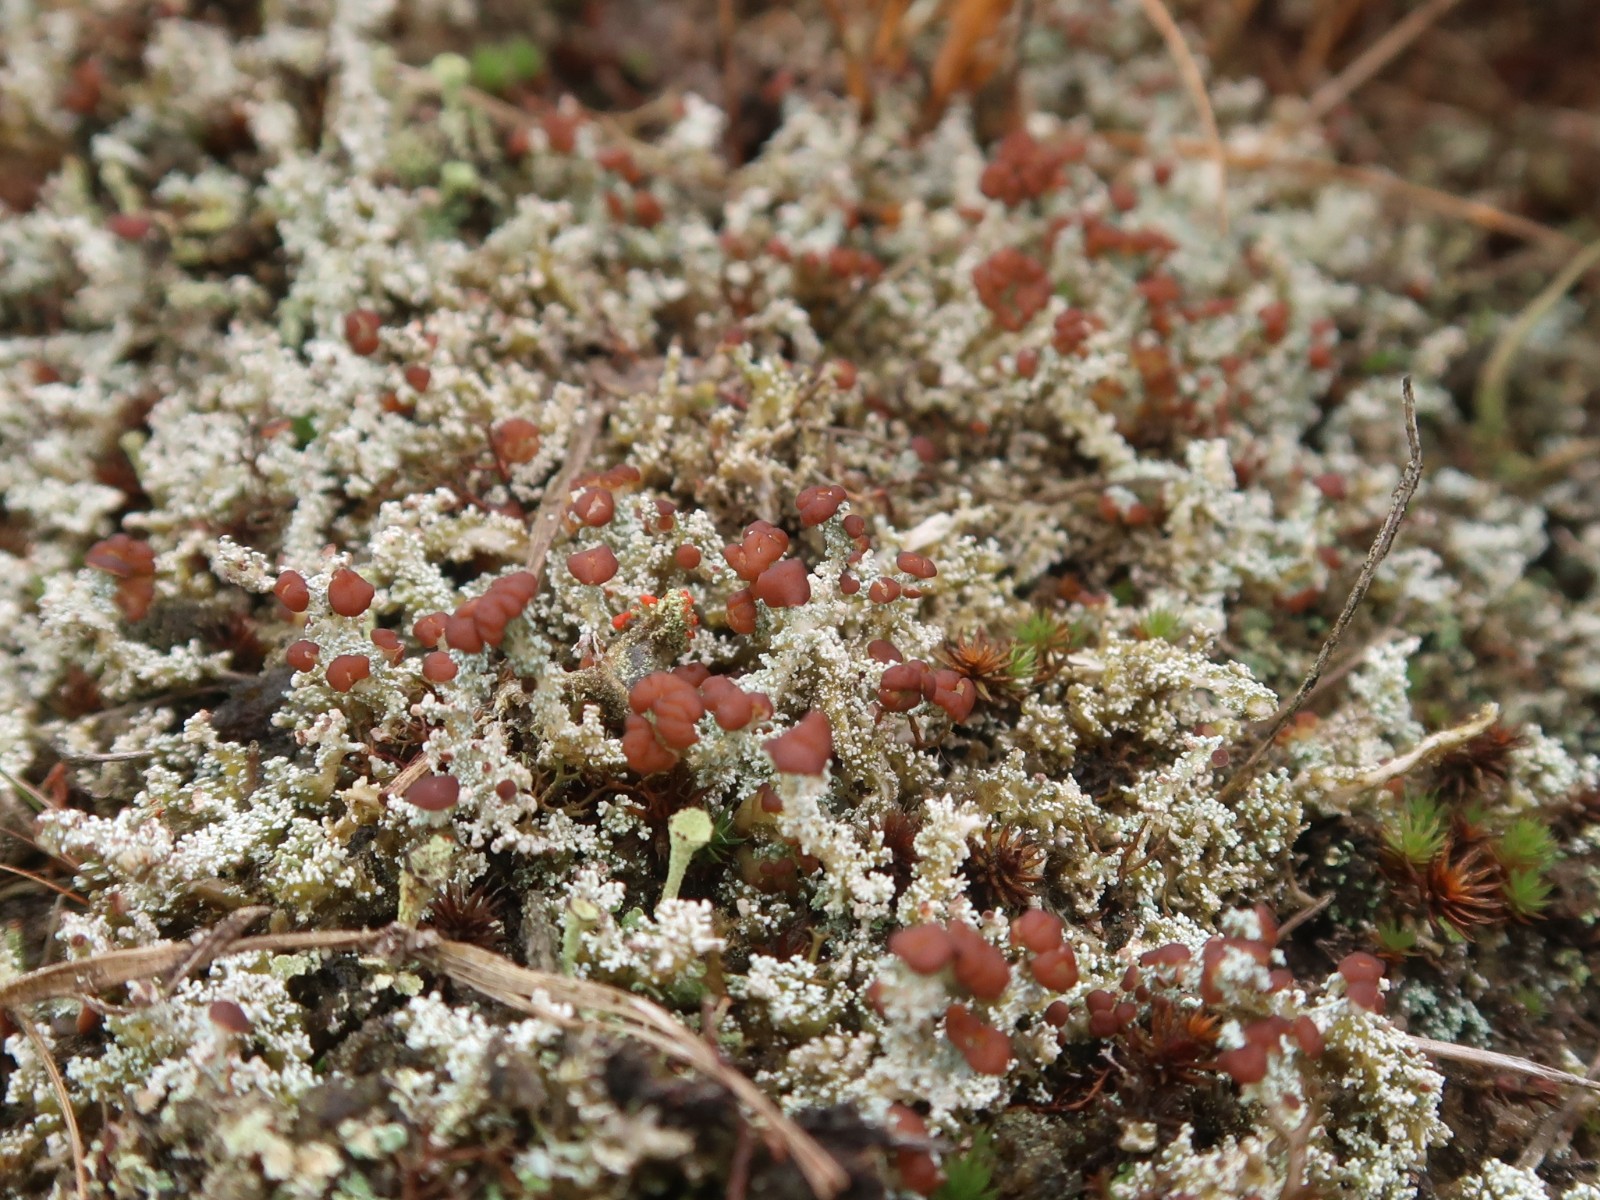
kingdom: Fungi
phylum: Ascomycota
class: Lecanoromycetes
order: Lecanorales
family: Stereocaulaceae
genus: Stereocaulon
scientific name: Stereocaulon saxatile
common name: klit-korallav
